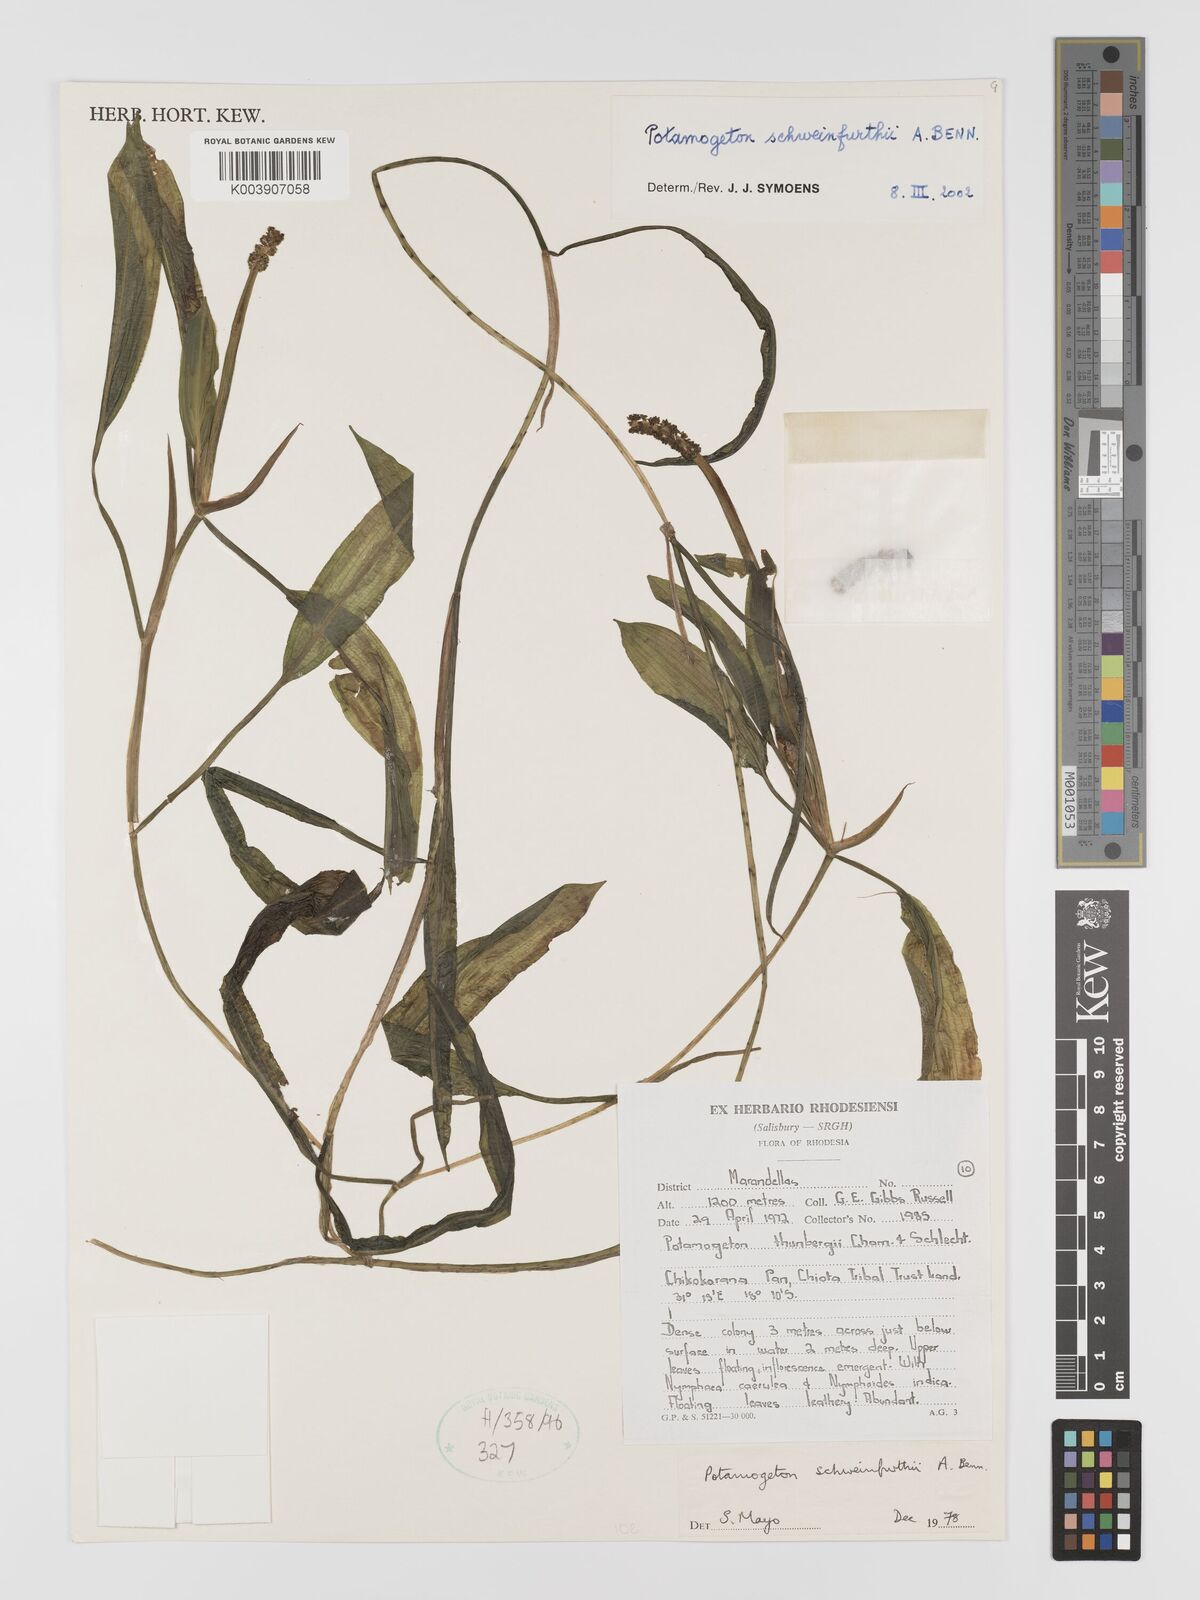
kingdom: Plantae
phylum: Tracheophyta
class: Liliopsida
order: Alismatales
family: Potamogetonaceae
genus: Potamogeton
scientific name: Potamogeton schweinfurthii
